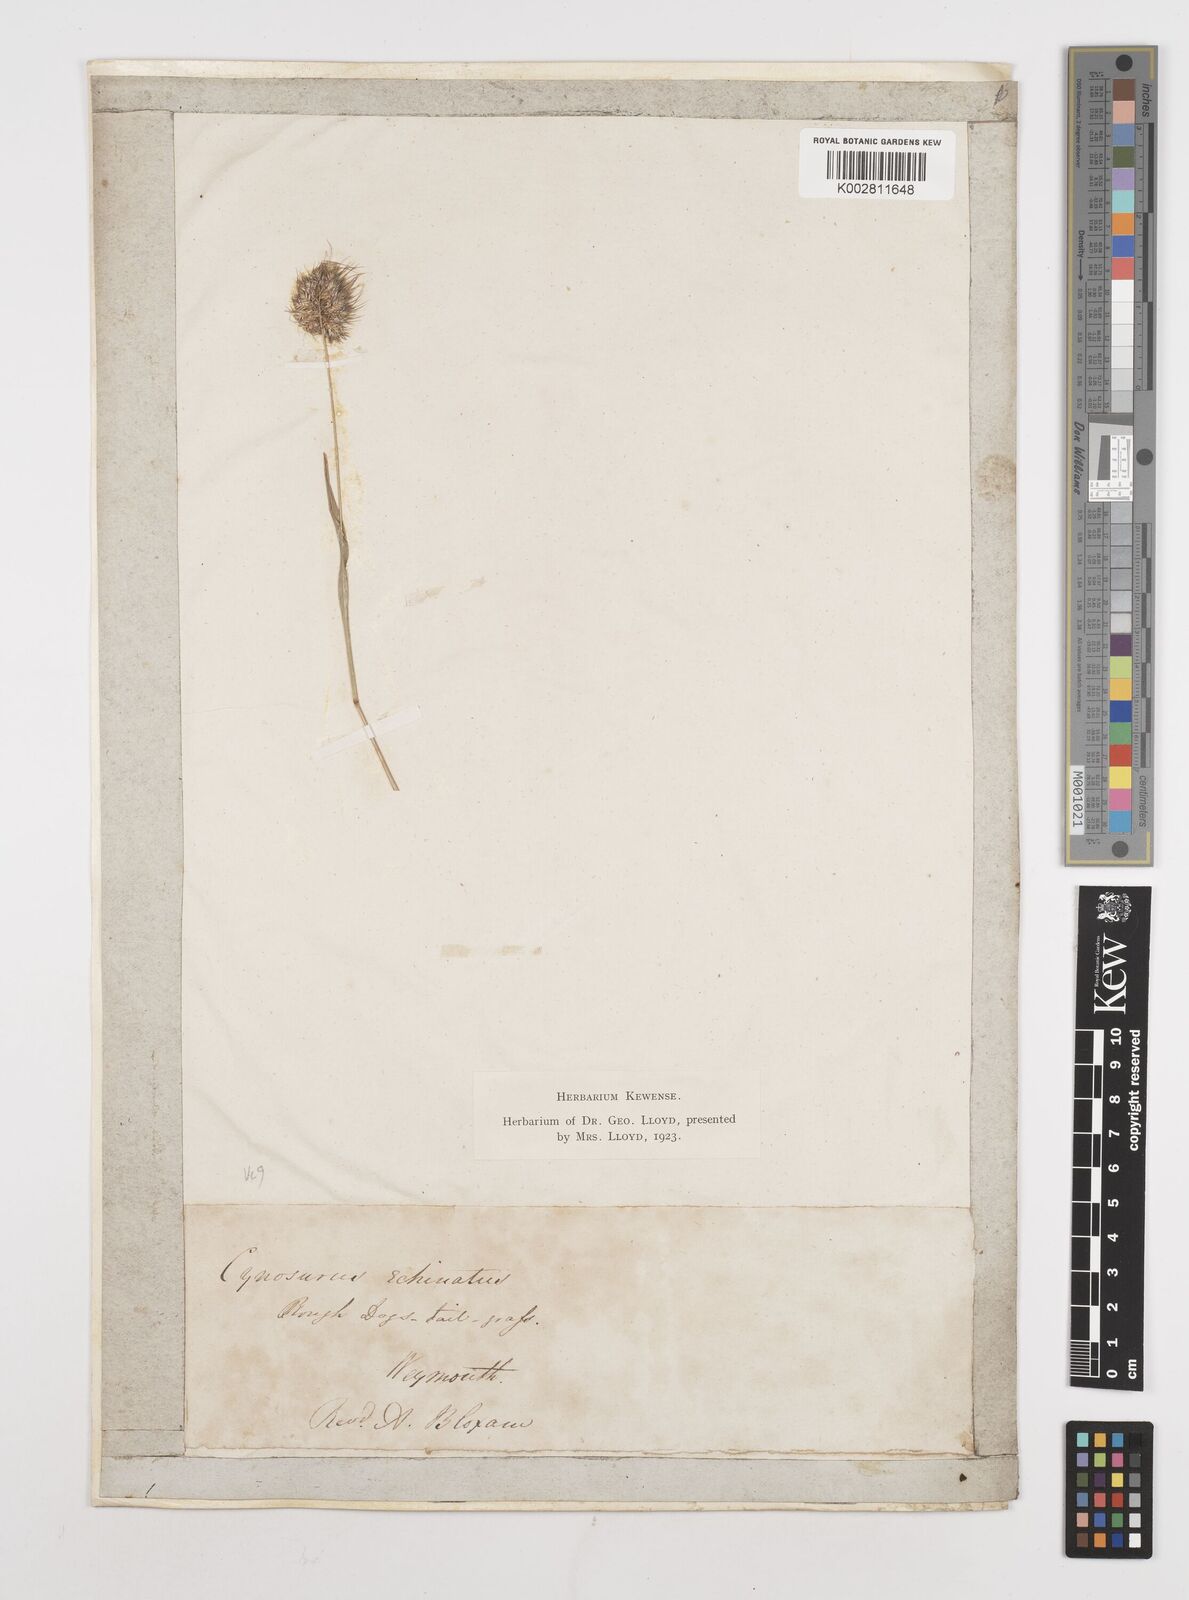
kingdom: Plantae
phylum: Tracheophyta
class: Liliopsida
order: Poales
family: Poaceae
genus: Cynosurus
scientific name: Cynosurus echinatus
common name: Rough dog's-tail
